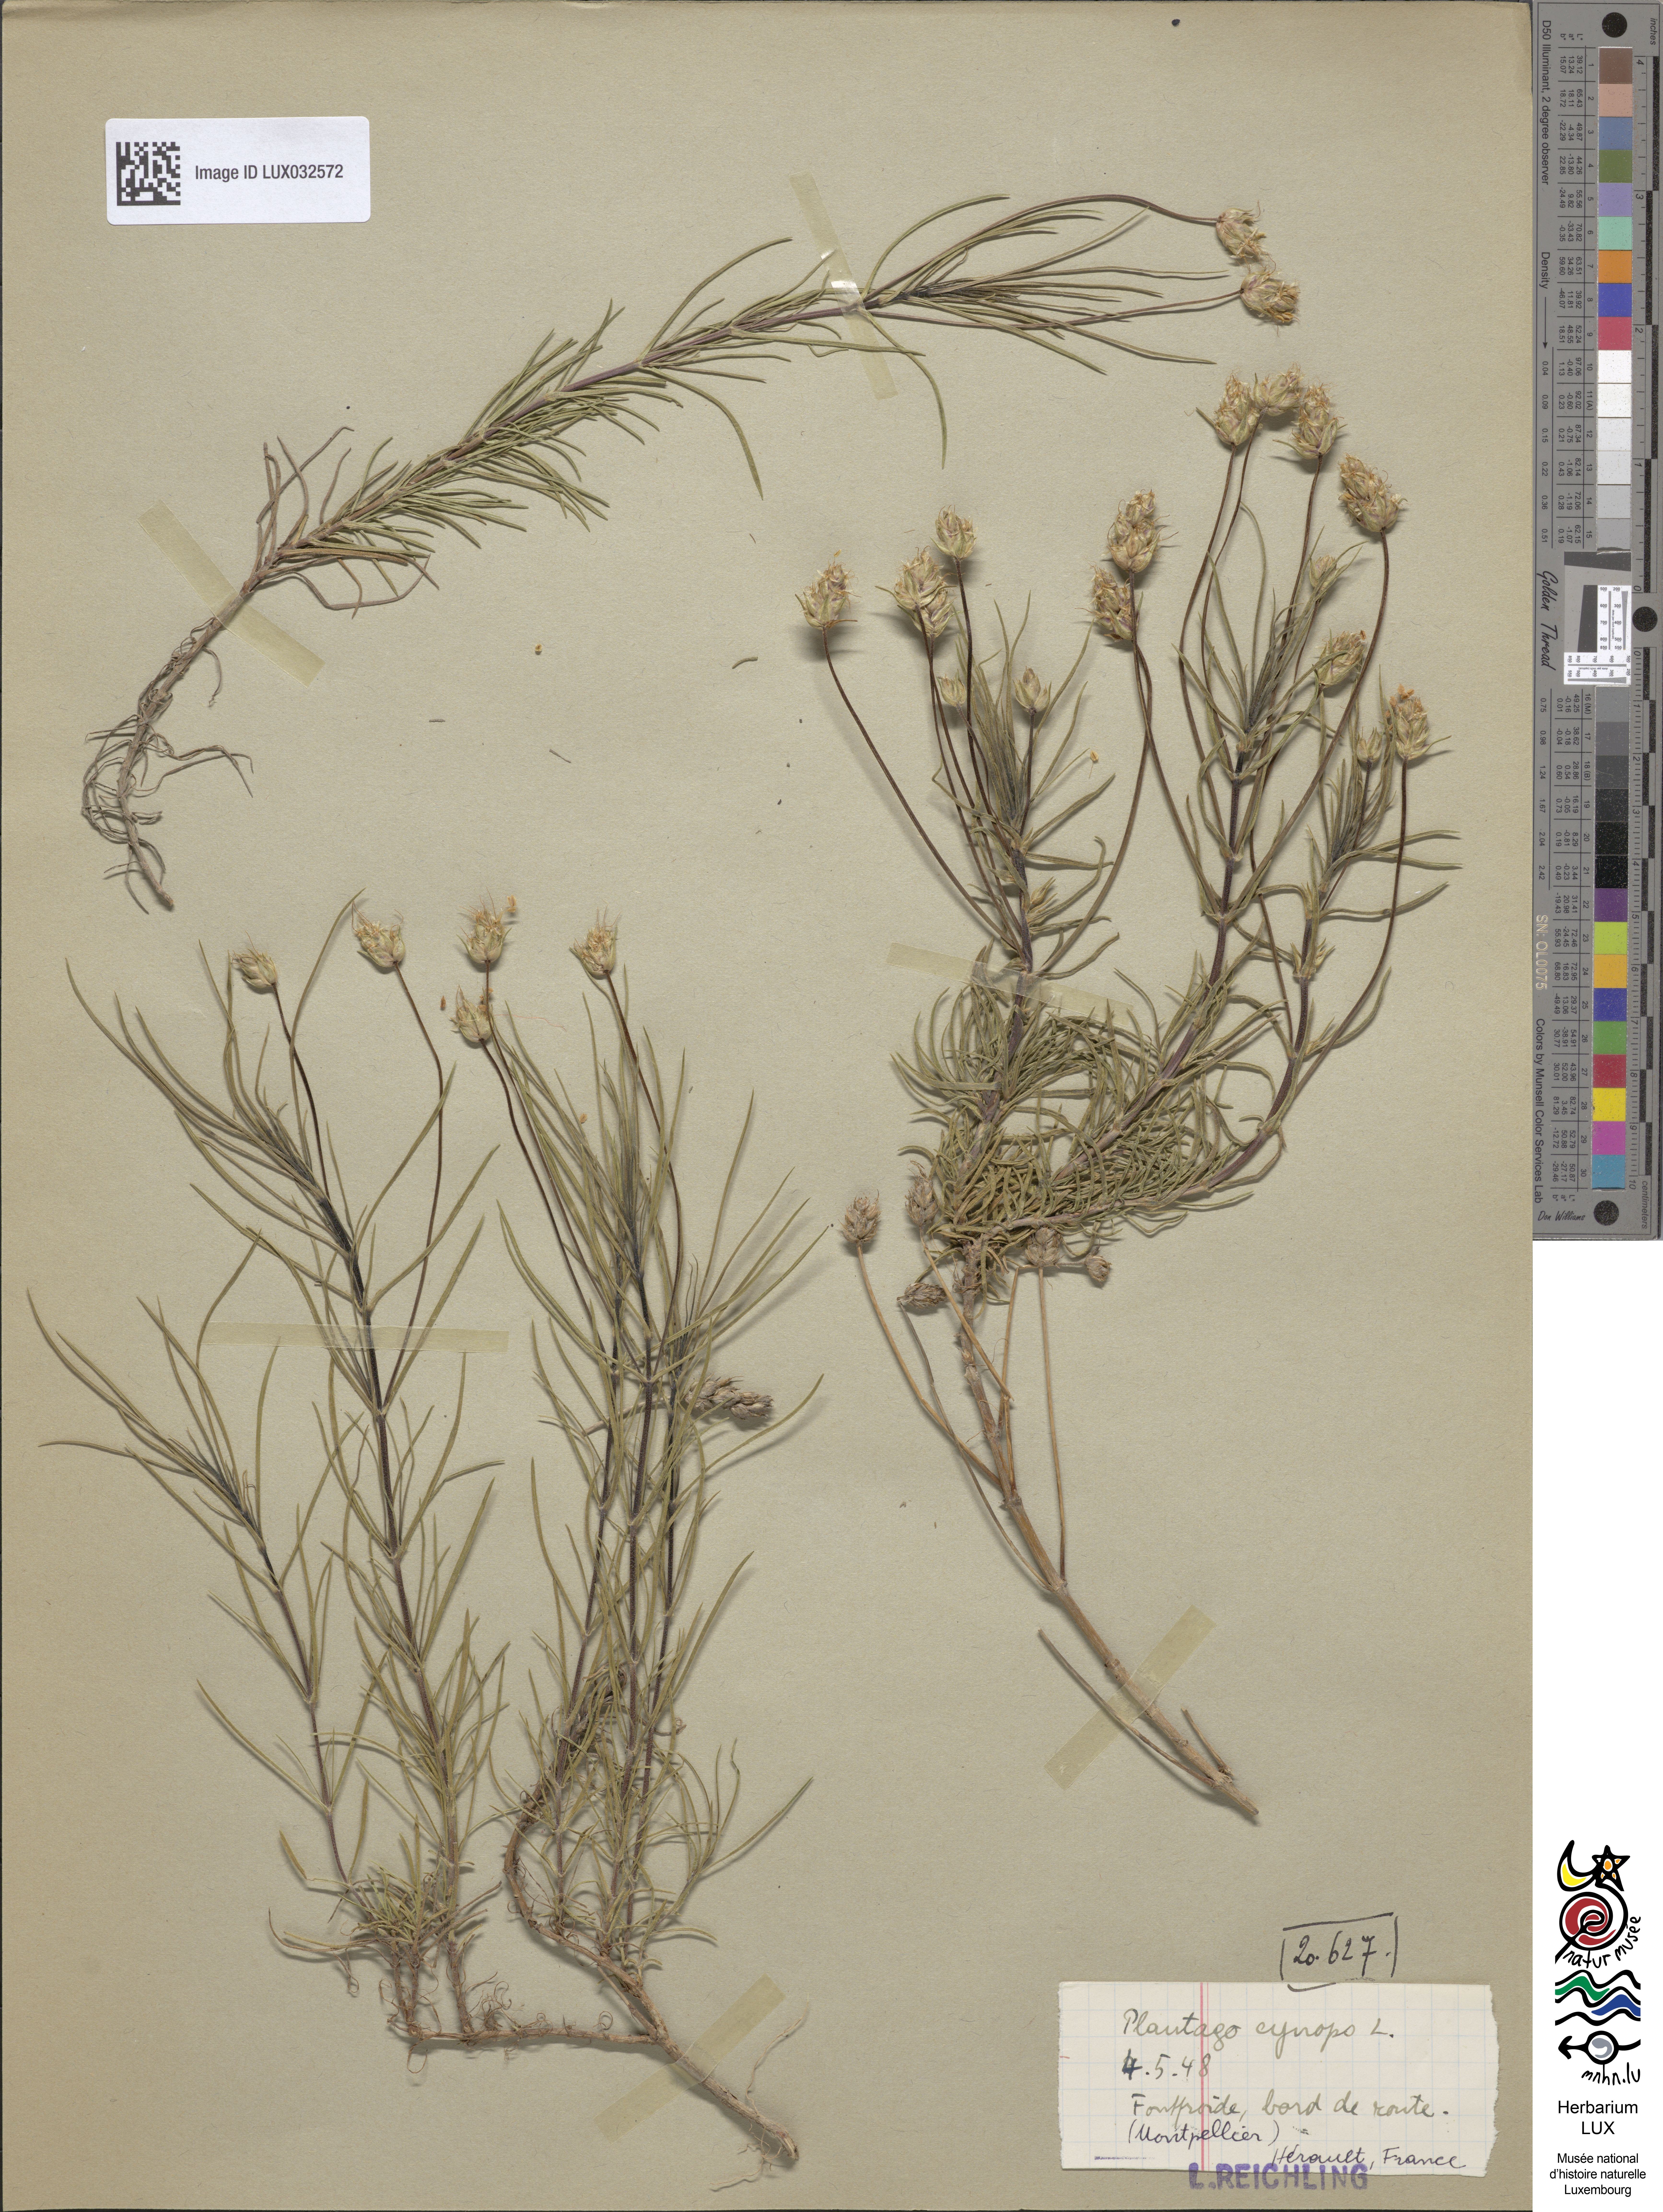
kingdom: Plantae
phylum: Tracheophyta
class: Magnoliopsida
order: Lamiales
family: Plantaginaceae
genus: Plantago
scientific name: Plantago sempervirens
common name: Shrubby plantain
